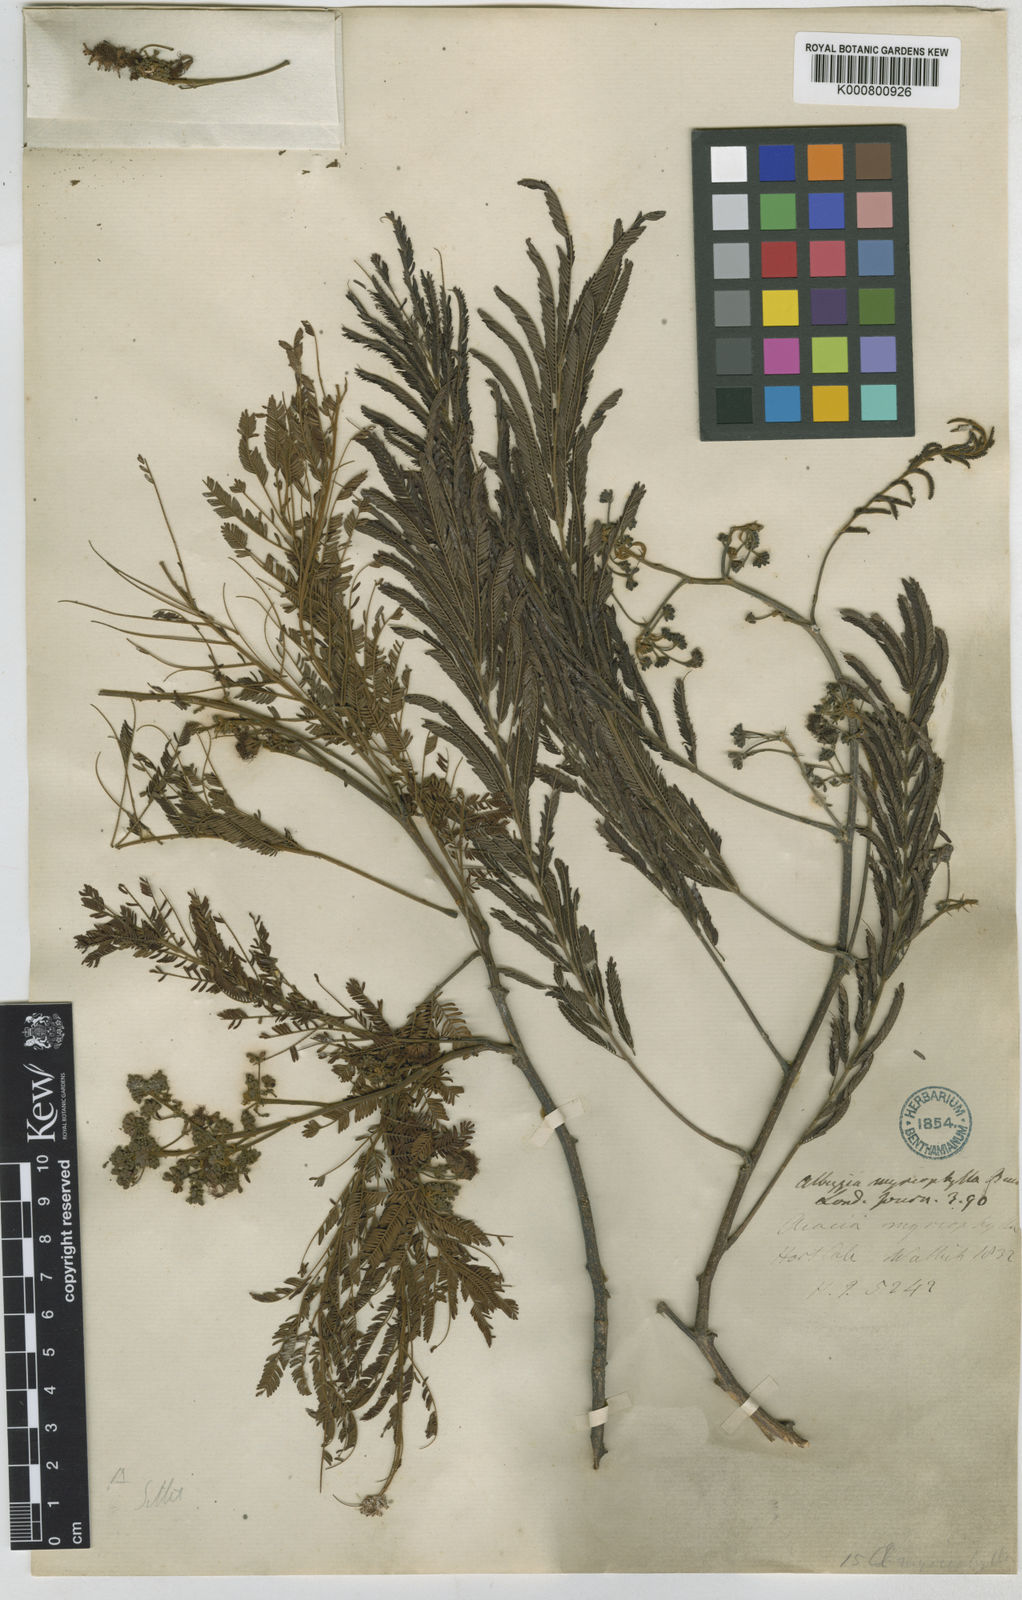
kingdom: Plantae
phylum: Tracheophyta
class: Magnoliopsida
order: Fabales
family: Fabaceae
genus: Albizia
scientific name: Albizia myriophylla
